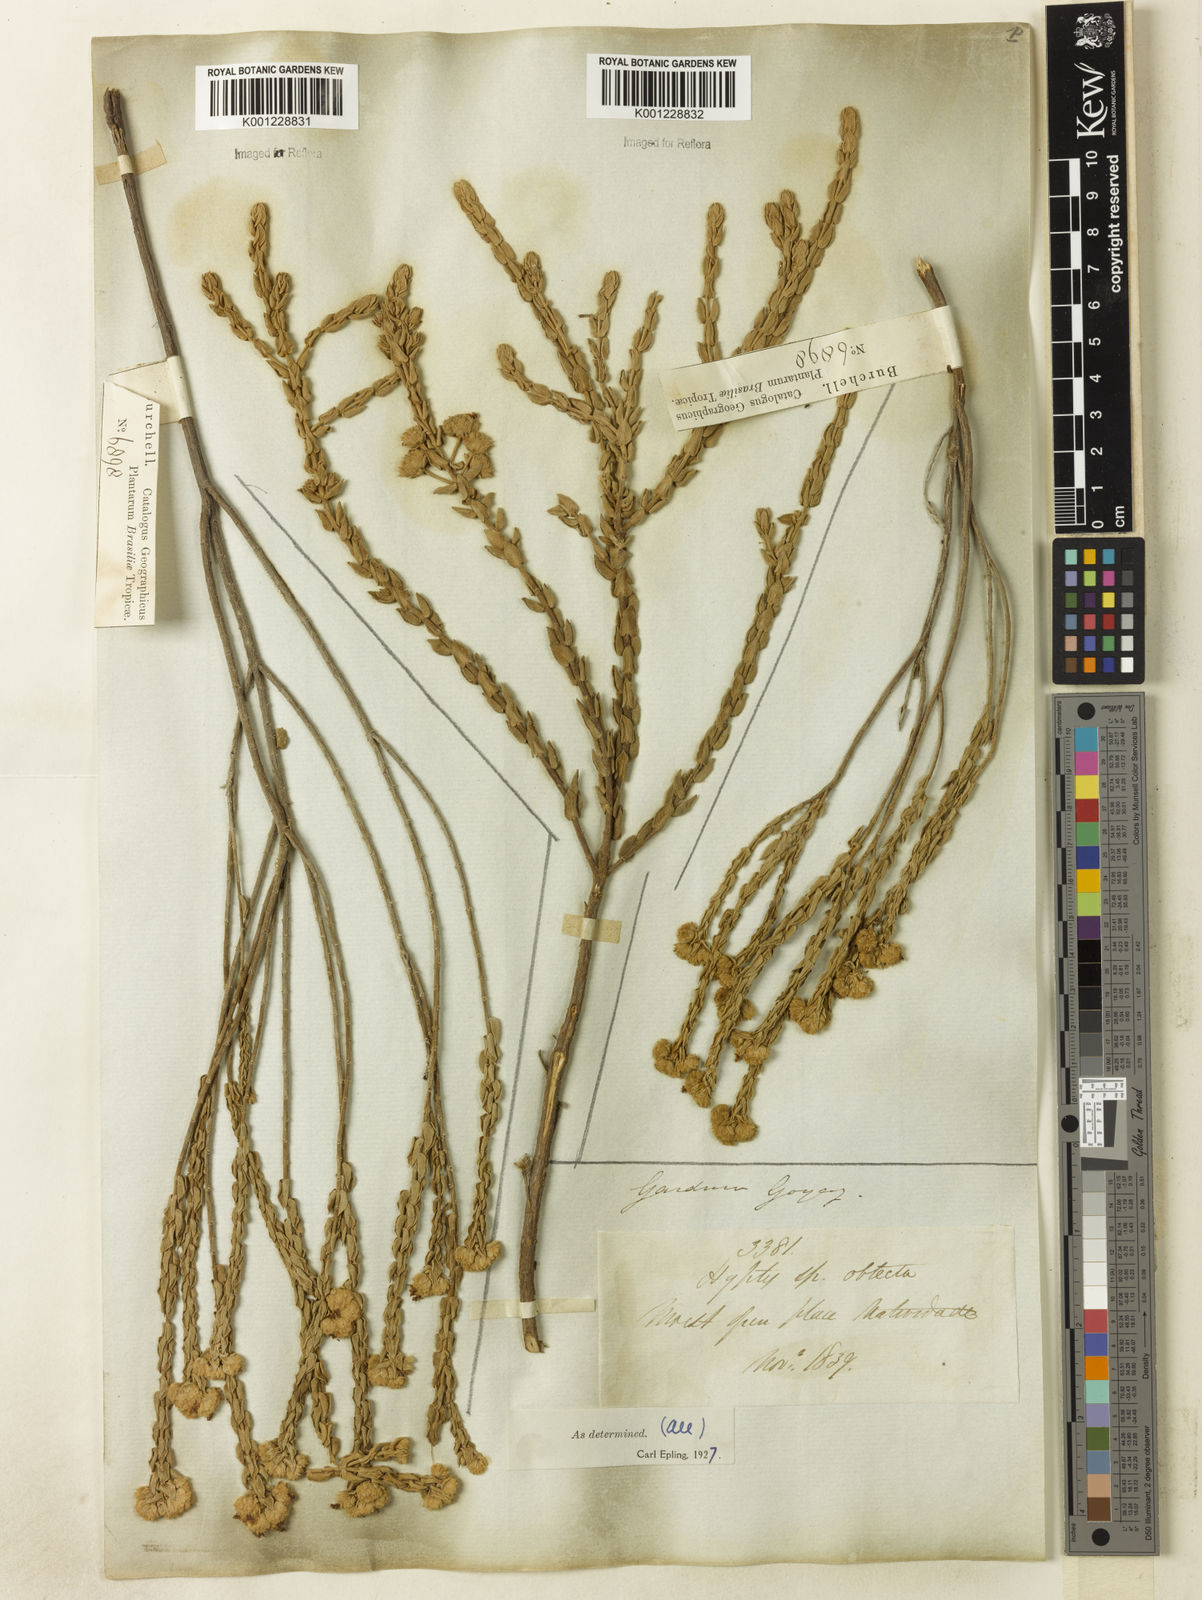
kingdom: Plantae
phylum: Tracheophyta
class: Magnoliopsida
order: Lamiales
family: Lamiaceae
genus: Hyptis
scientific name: Hyptis obtecta
